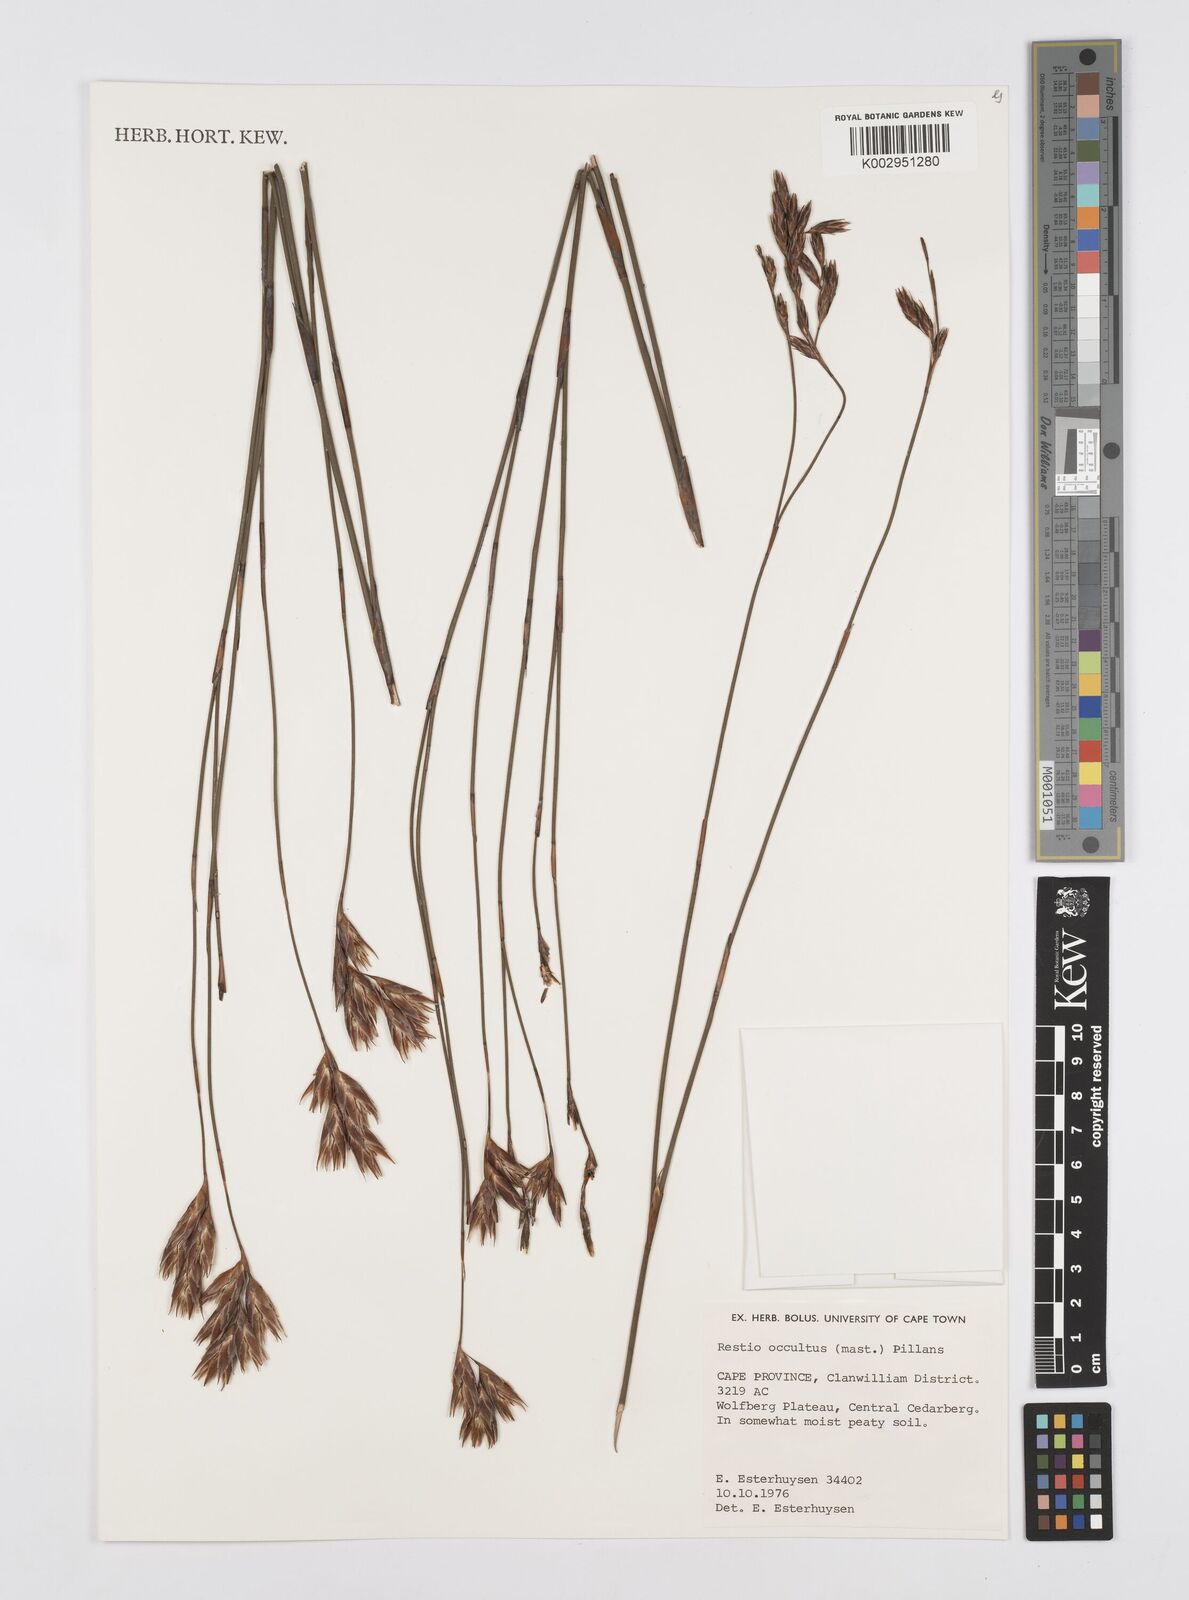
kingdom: Plantae
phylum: Tracheophyta
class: Liliopsida
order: Poales
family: Restionaceae
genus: Restio
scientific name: Restio occultus
